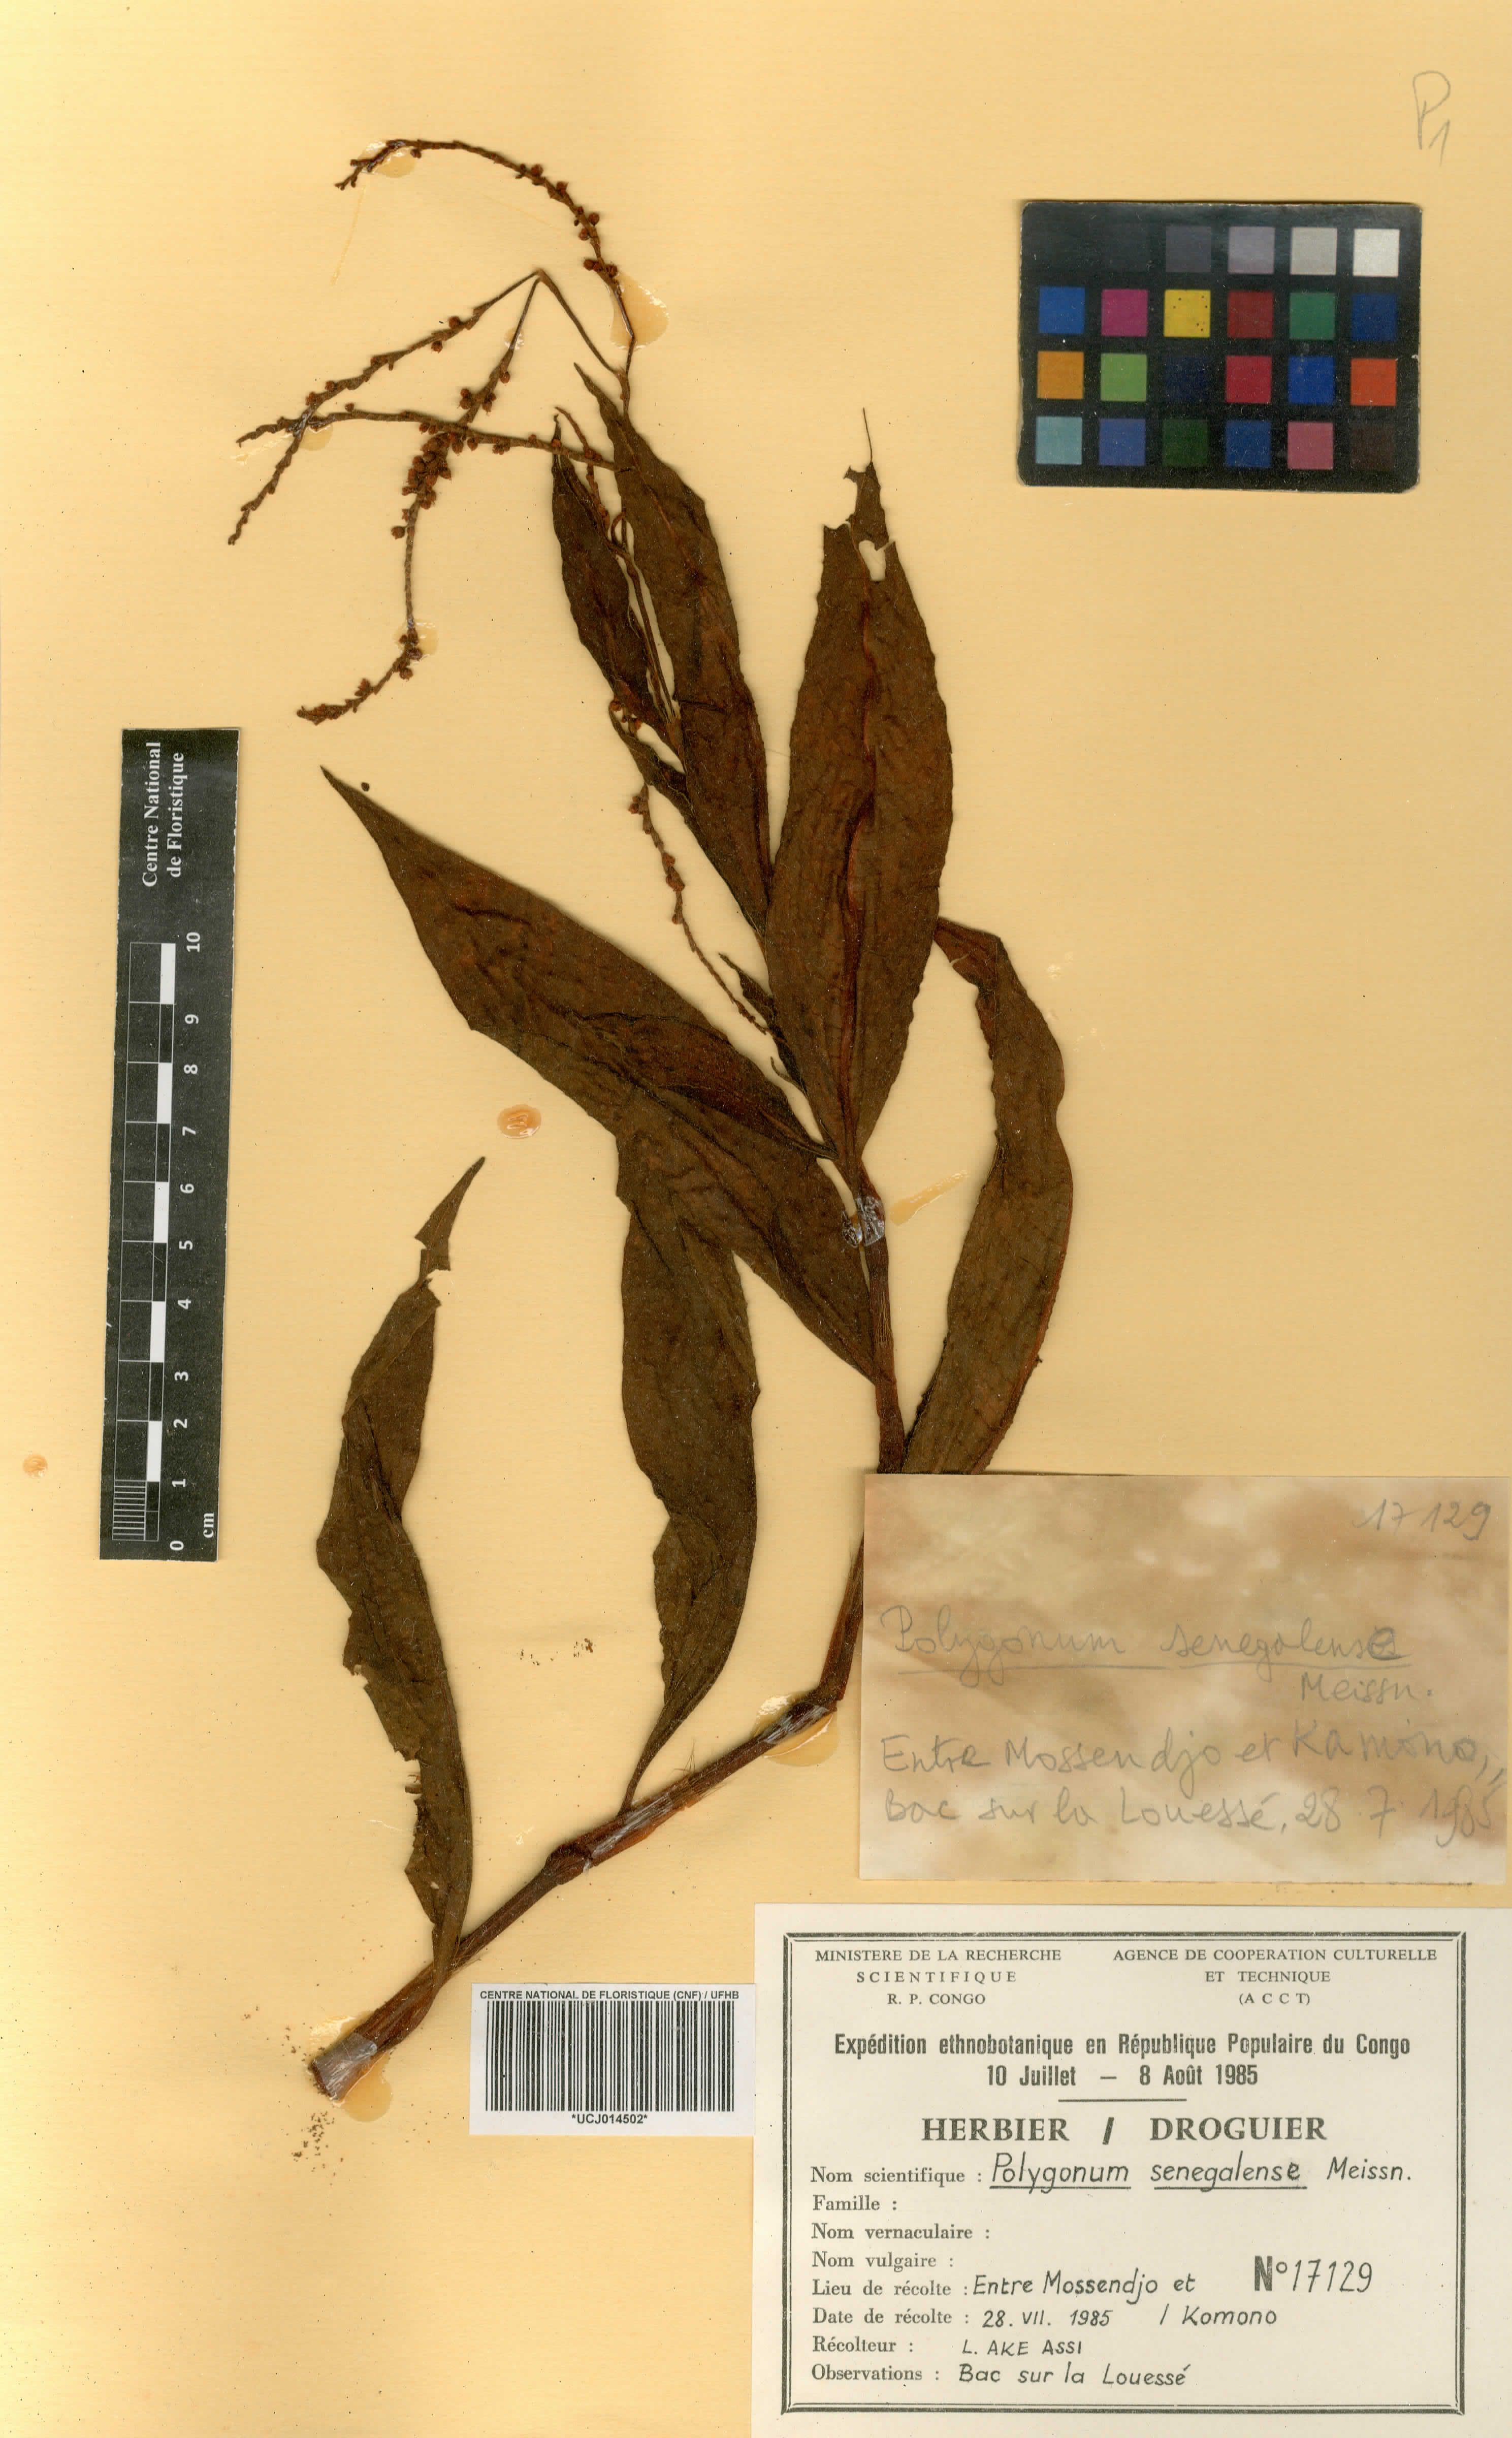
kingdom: Plantae
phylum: Tracheophyta
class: Magnoliopsida
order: Caryophyllales
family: Polygonaceae
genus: Persicaria
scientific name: Persicaria senegalensis
